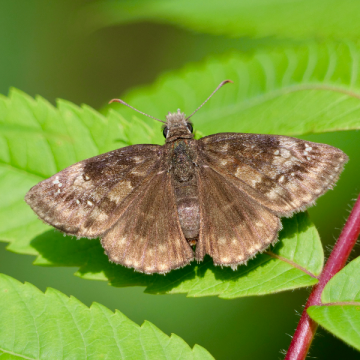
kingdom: Animalia
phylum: Arthropoda
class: Insecta
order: Lepidoptera
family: Hesperiidae
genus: Gesta
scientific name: Gesta
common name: Wild Indigo Duskywing
